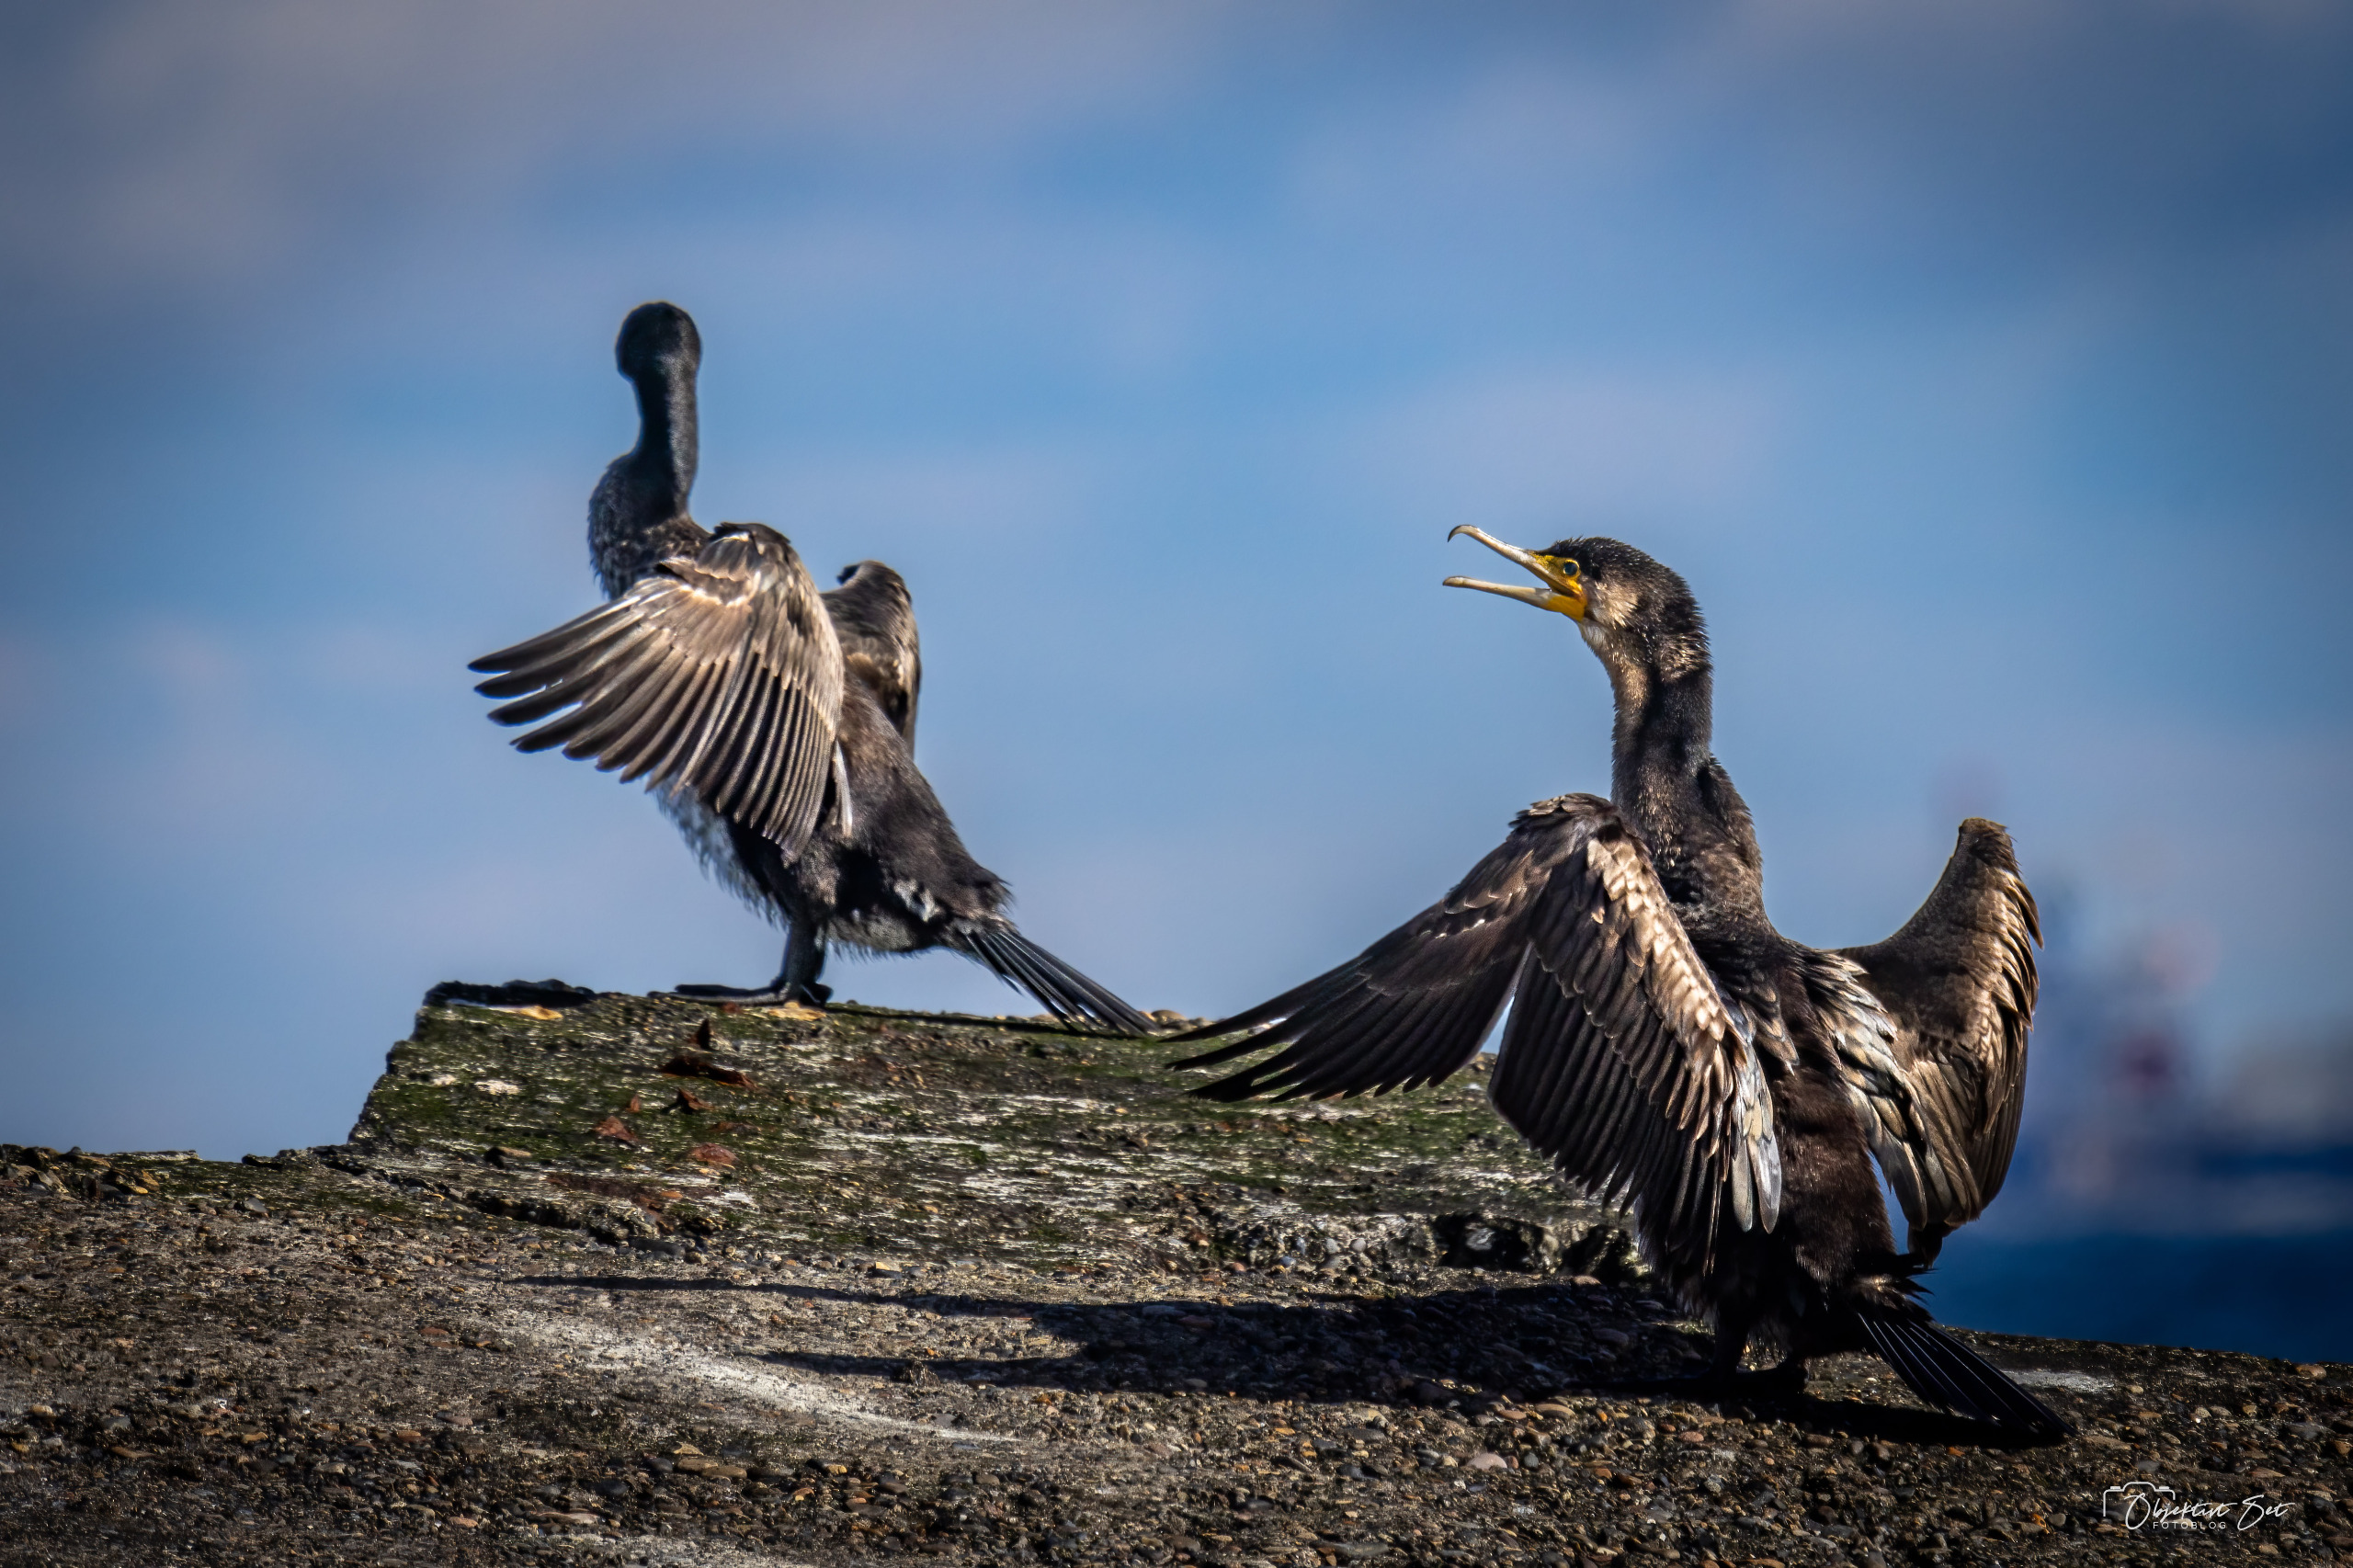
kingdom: Animalia
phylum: Chordata
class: Aves
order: Suliformes
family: Phalacrocoracidae
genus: Phalacrocorax
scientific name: Phalacrocorax carbo
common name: Skarv
